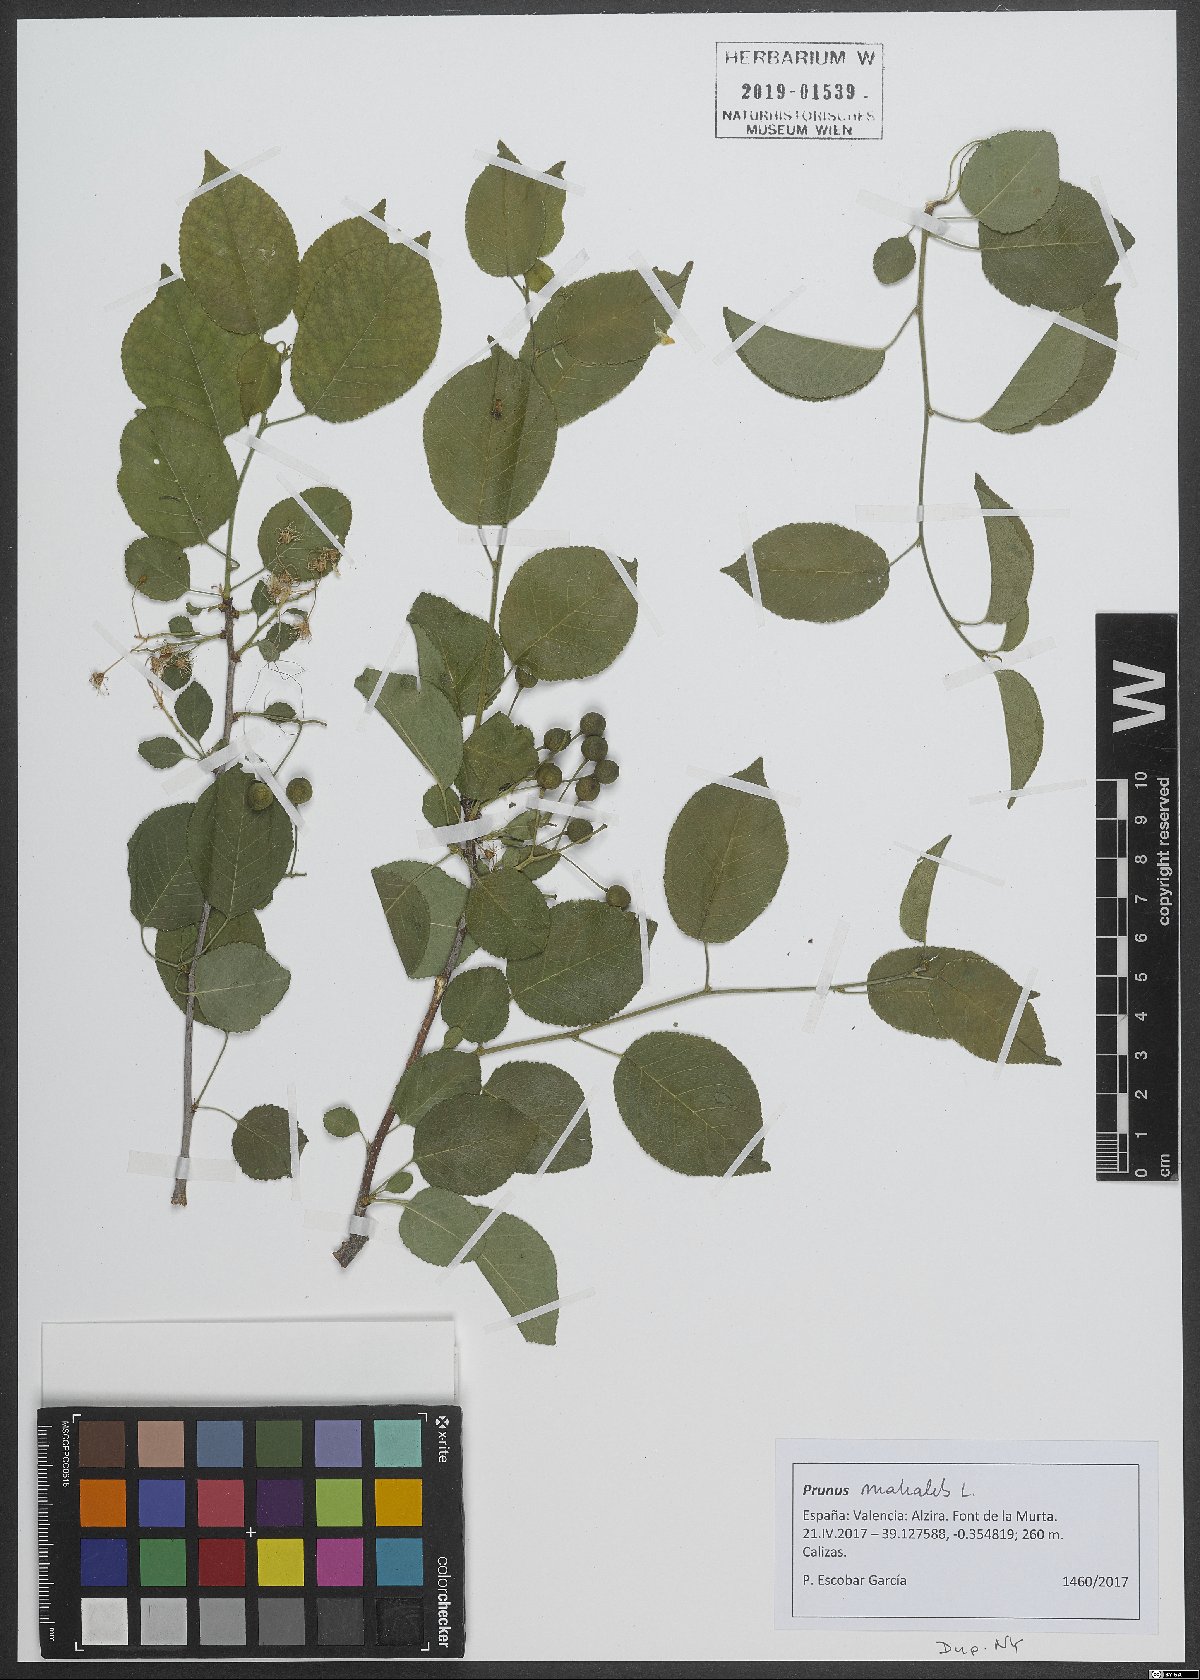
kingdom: Plantae
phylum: Tracheophyta
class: Magnoliopsida
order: Rosales
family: Rosaceae
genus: Prunus
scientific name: Prunus mahaleb
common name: Mahaleb cherry
